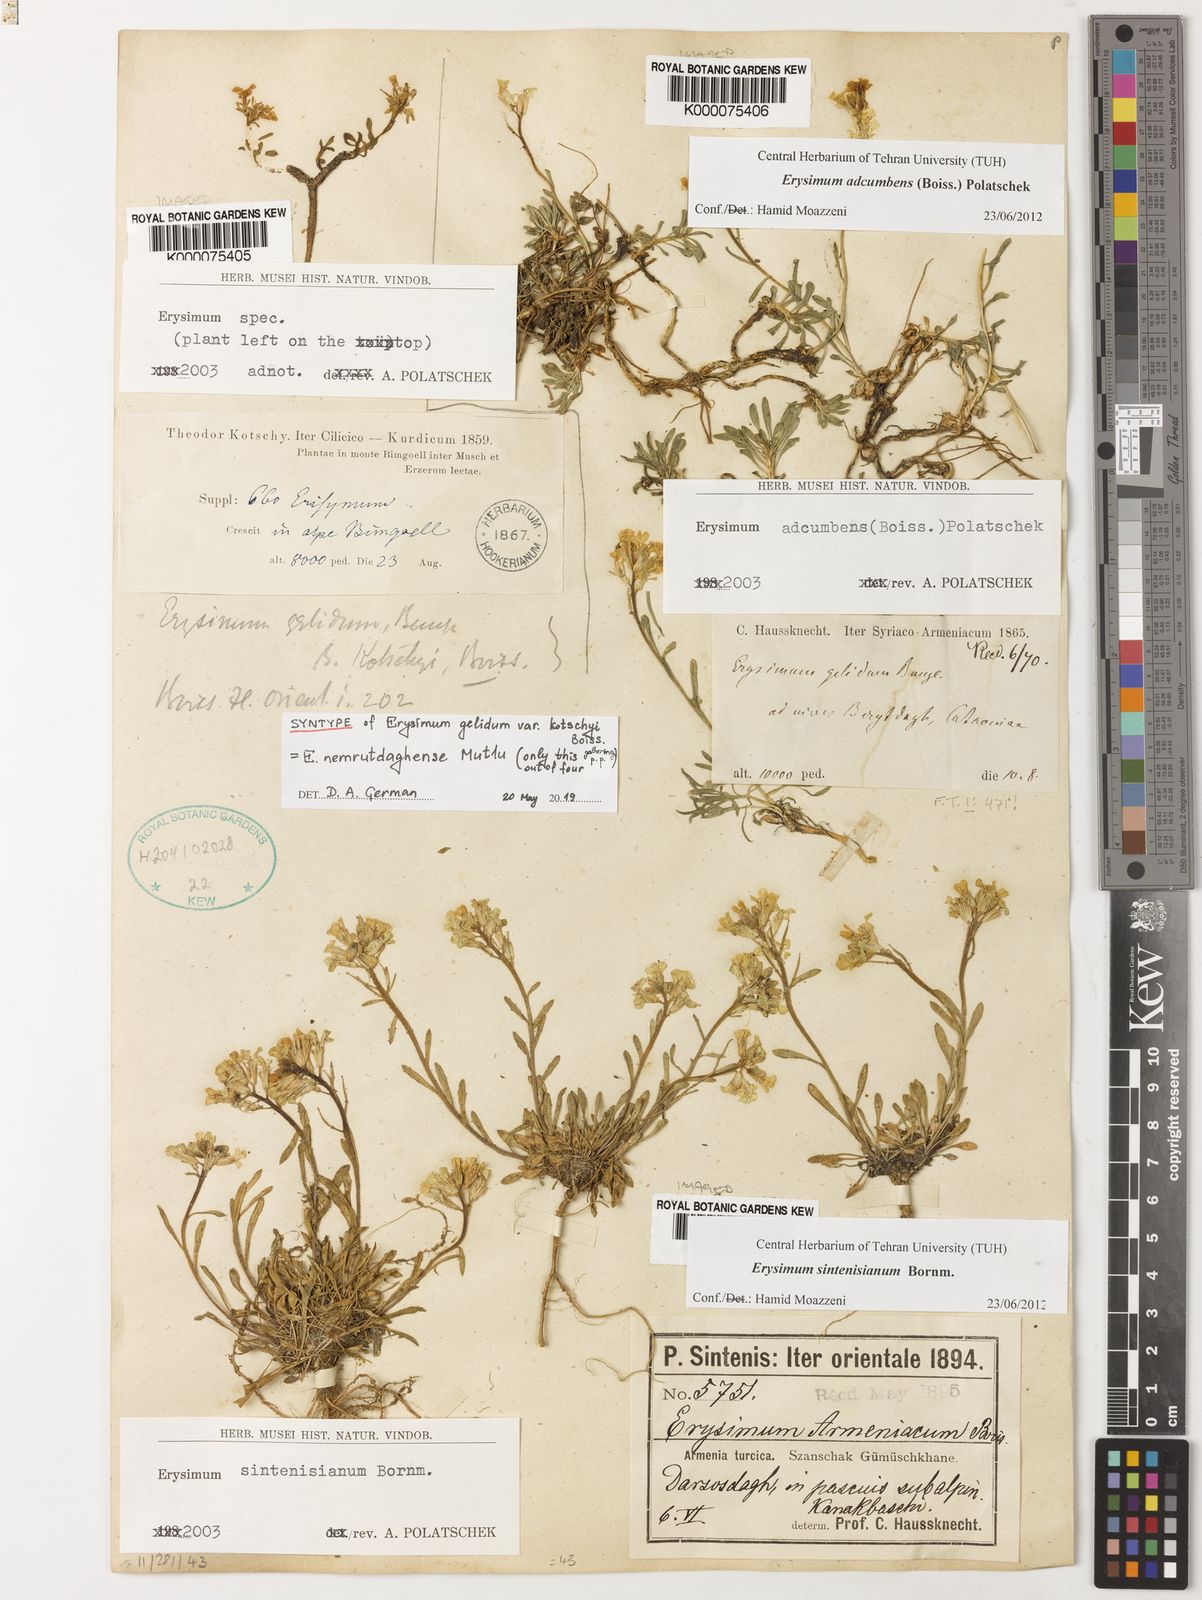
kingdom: Plantae
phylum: Tracheophyta
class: Magnoliopsida
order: Brassicales
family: Brassicaceae
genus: Erysimum
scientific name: Erysimum adcumbens
